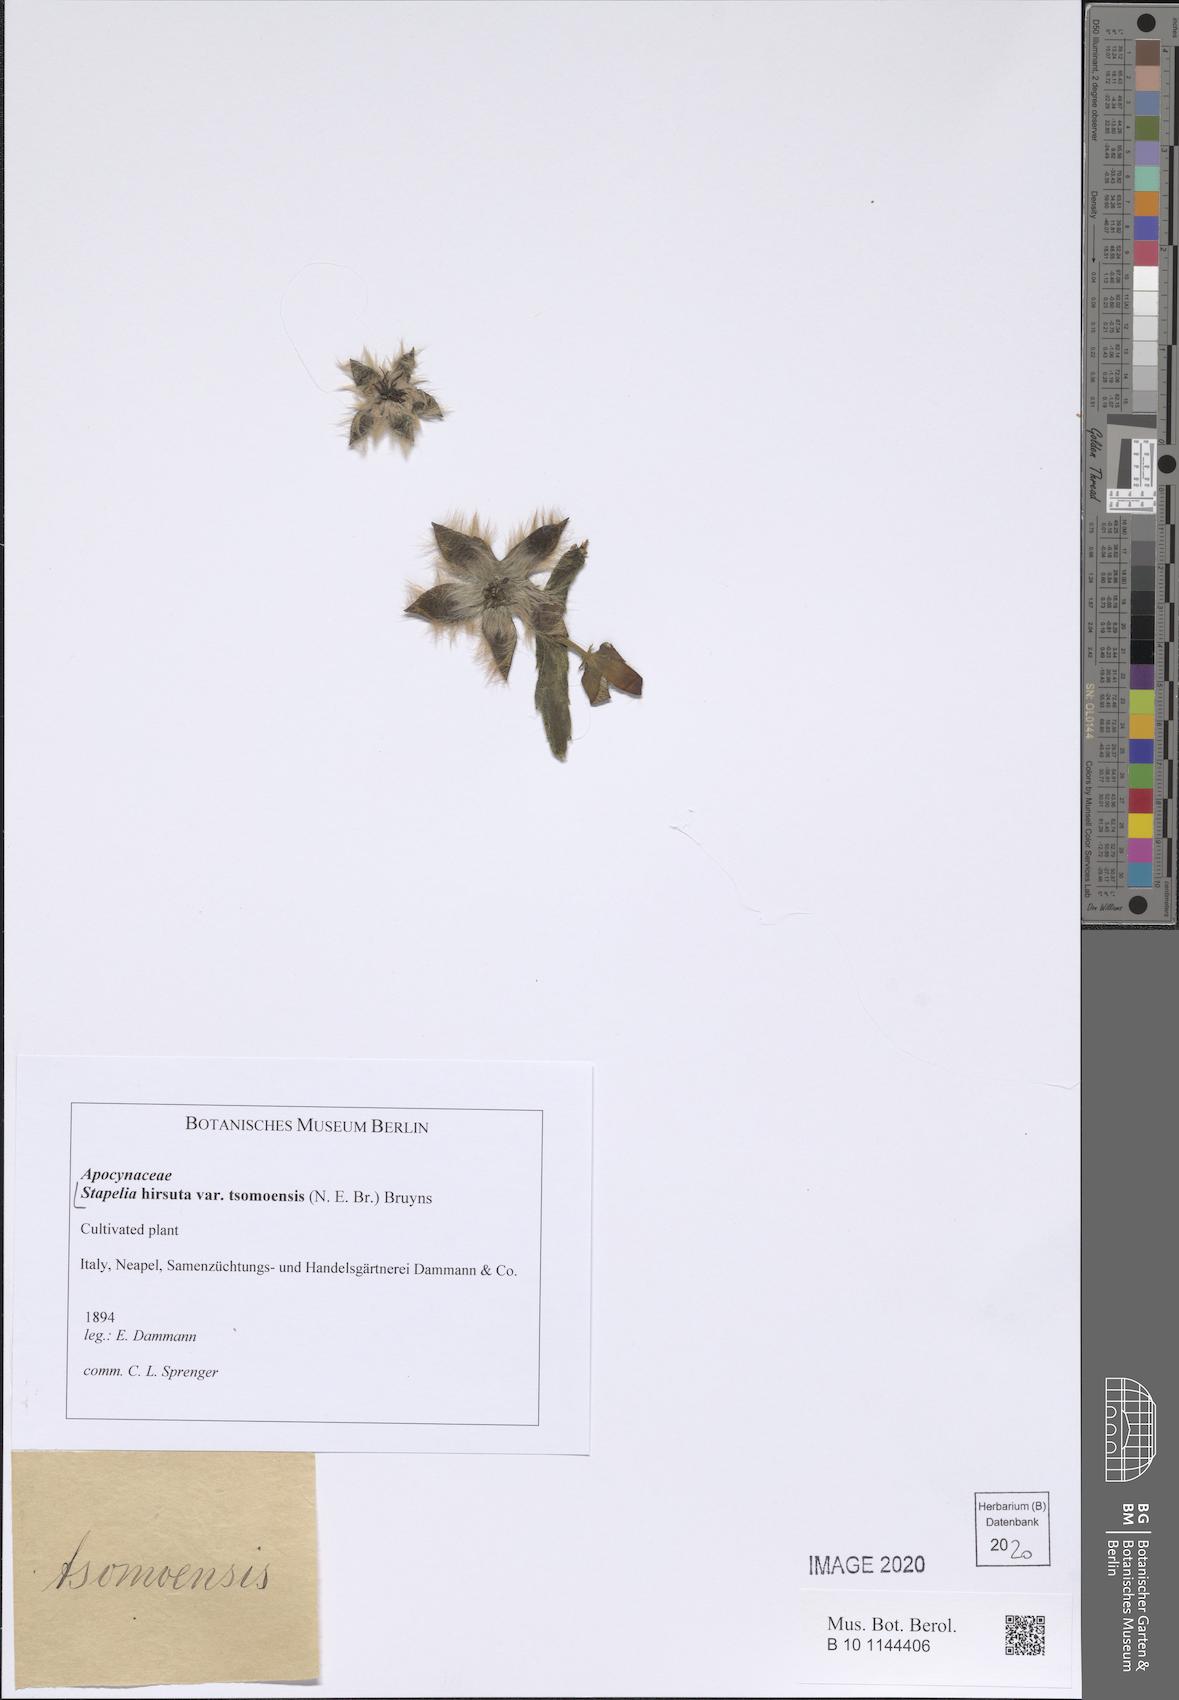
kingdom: Plantae
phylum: Tracheophyta
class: Magnoliopsida
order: Gentianales
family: Apocynaceae
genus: Ceropegia
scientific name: Ceropegia pulvinata
